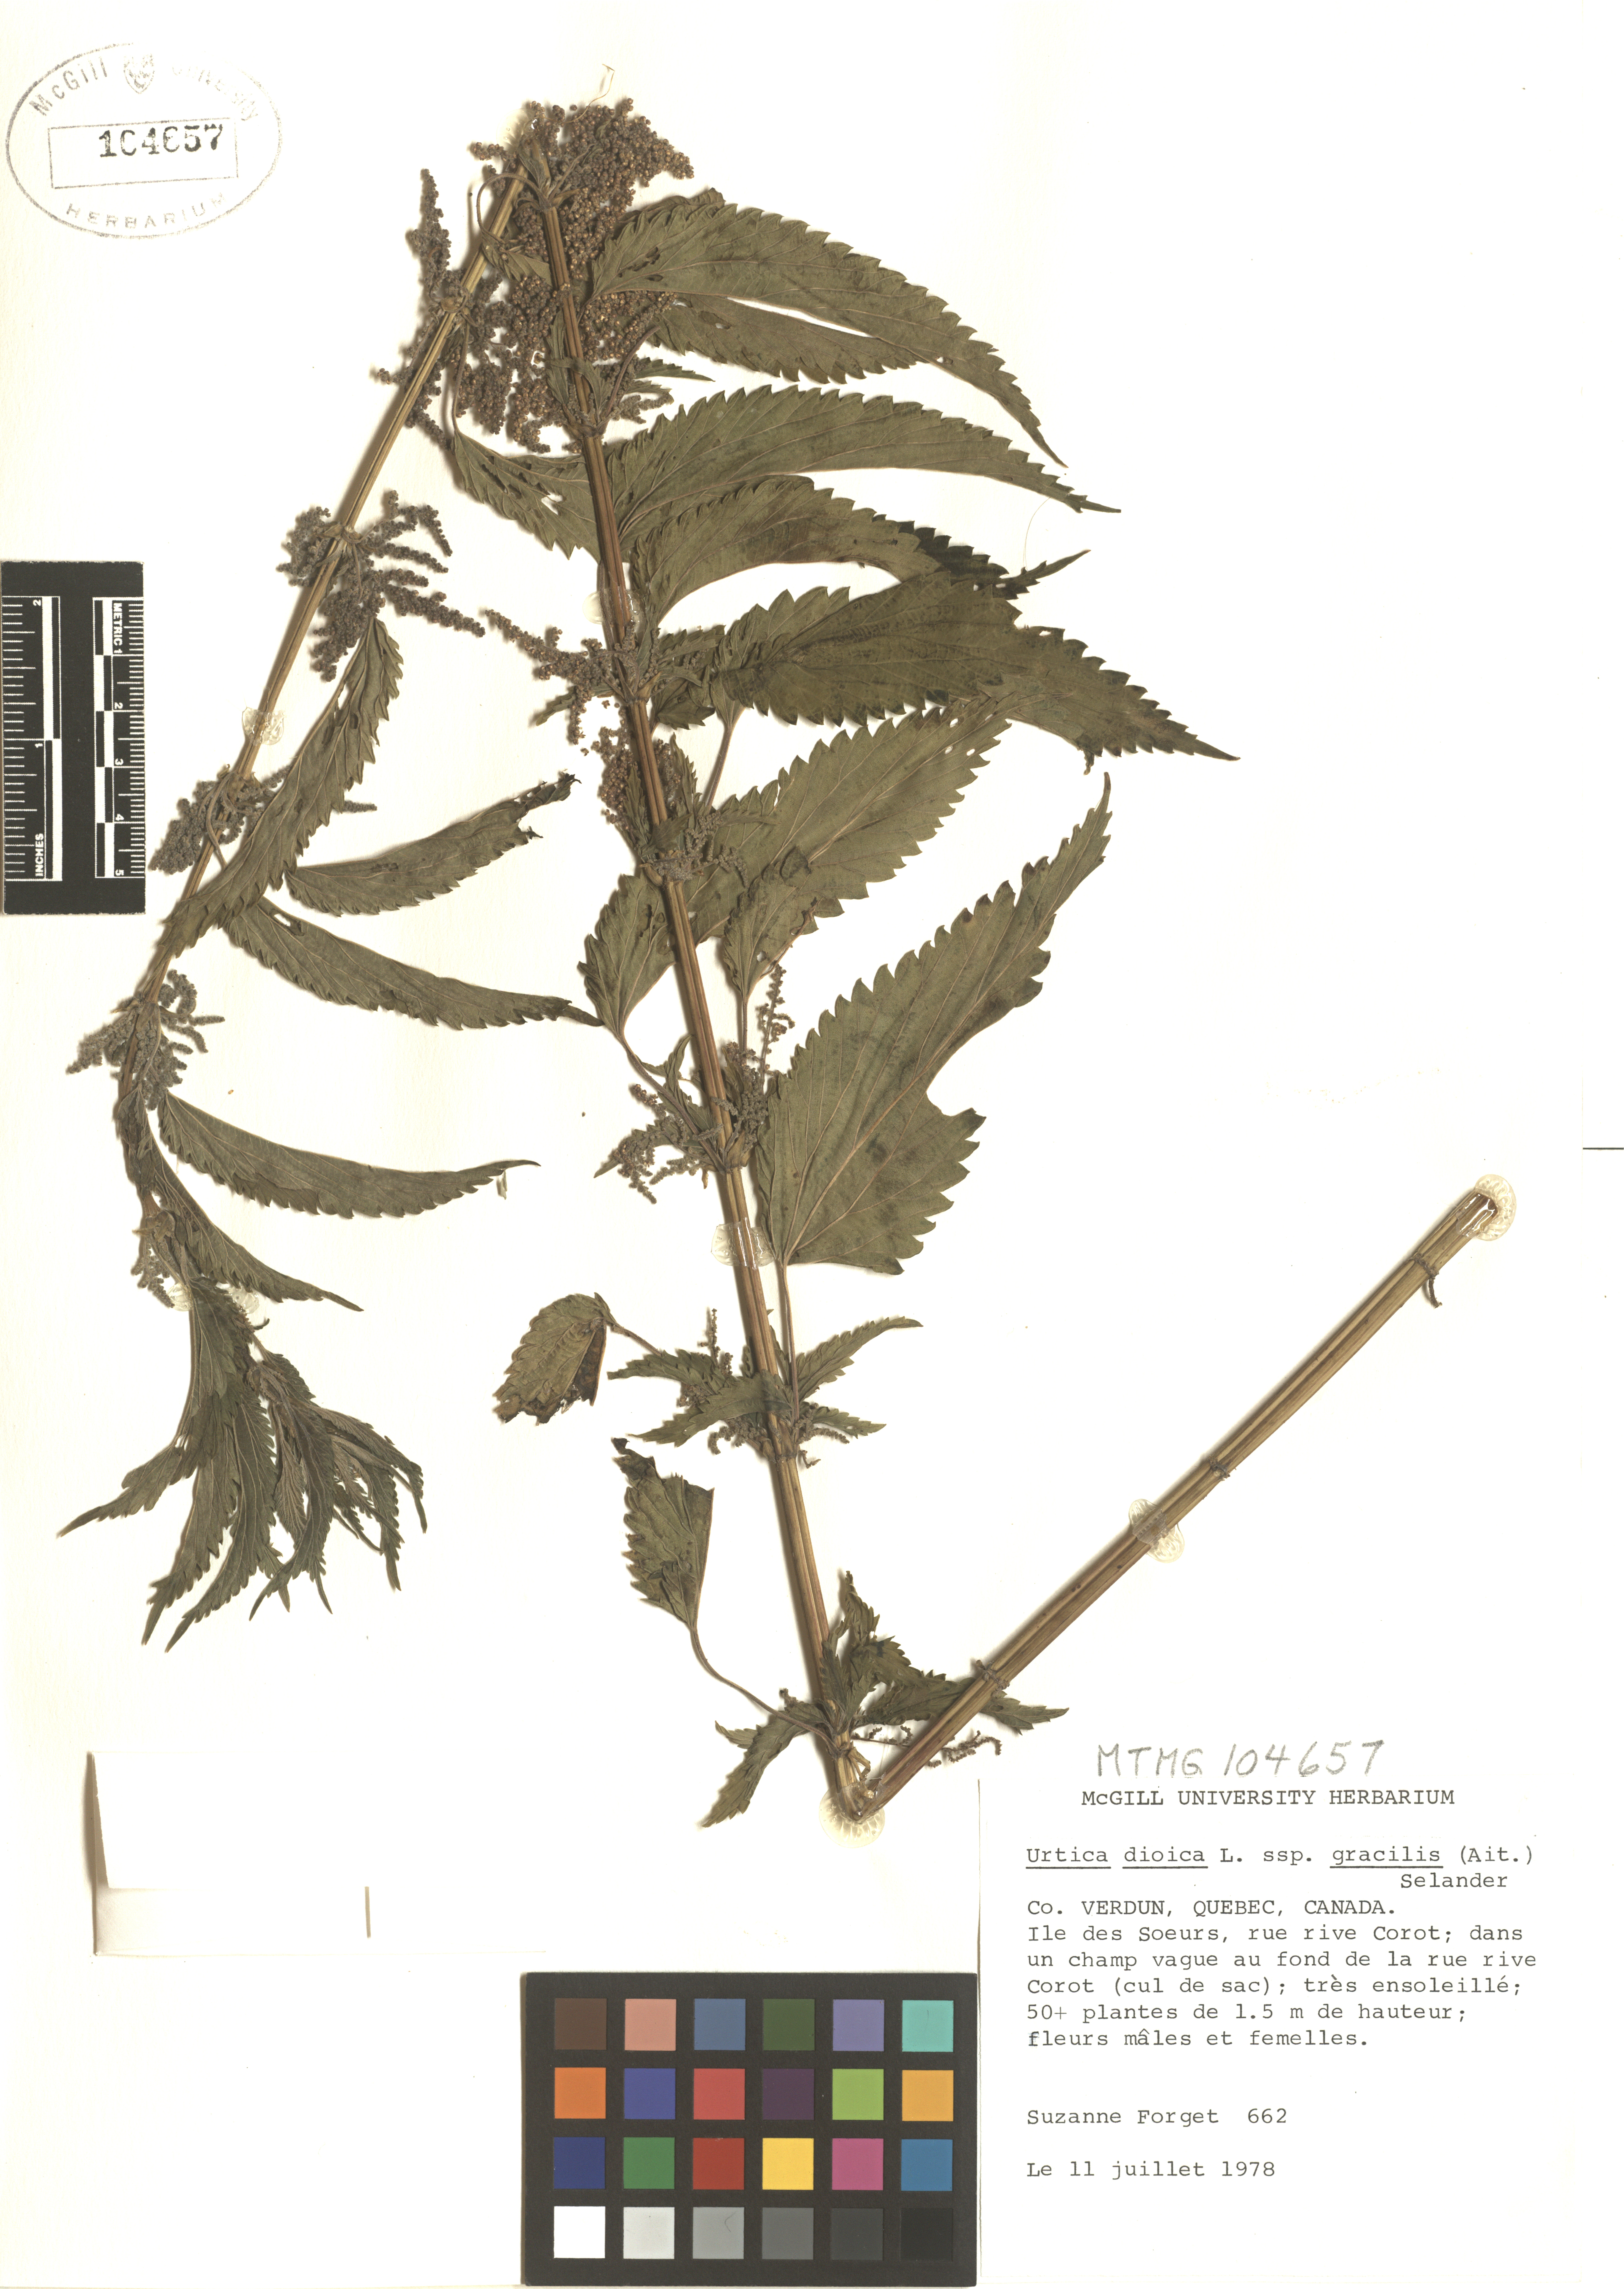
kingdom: Plantae
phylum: Tracheophyta
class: Magnoliopsida
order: Rosales
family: Urticaceae
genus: Urtica
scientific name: Urtica gracilis
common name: Slender stinging nettle
